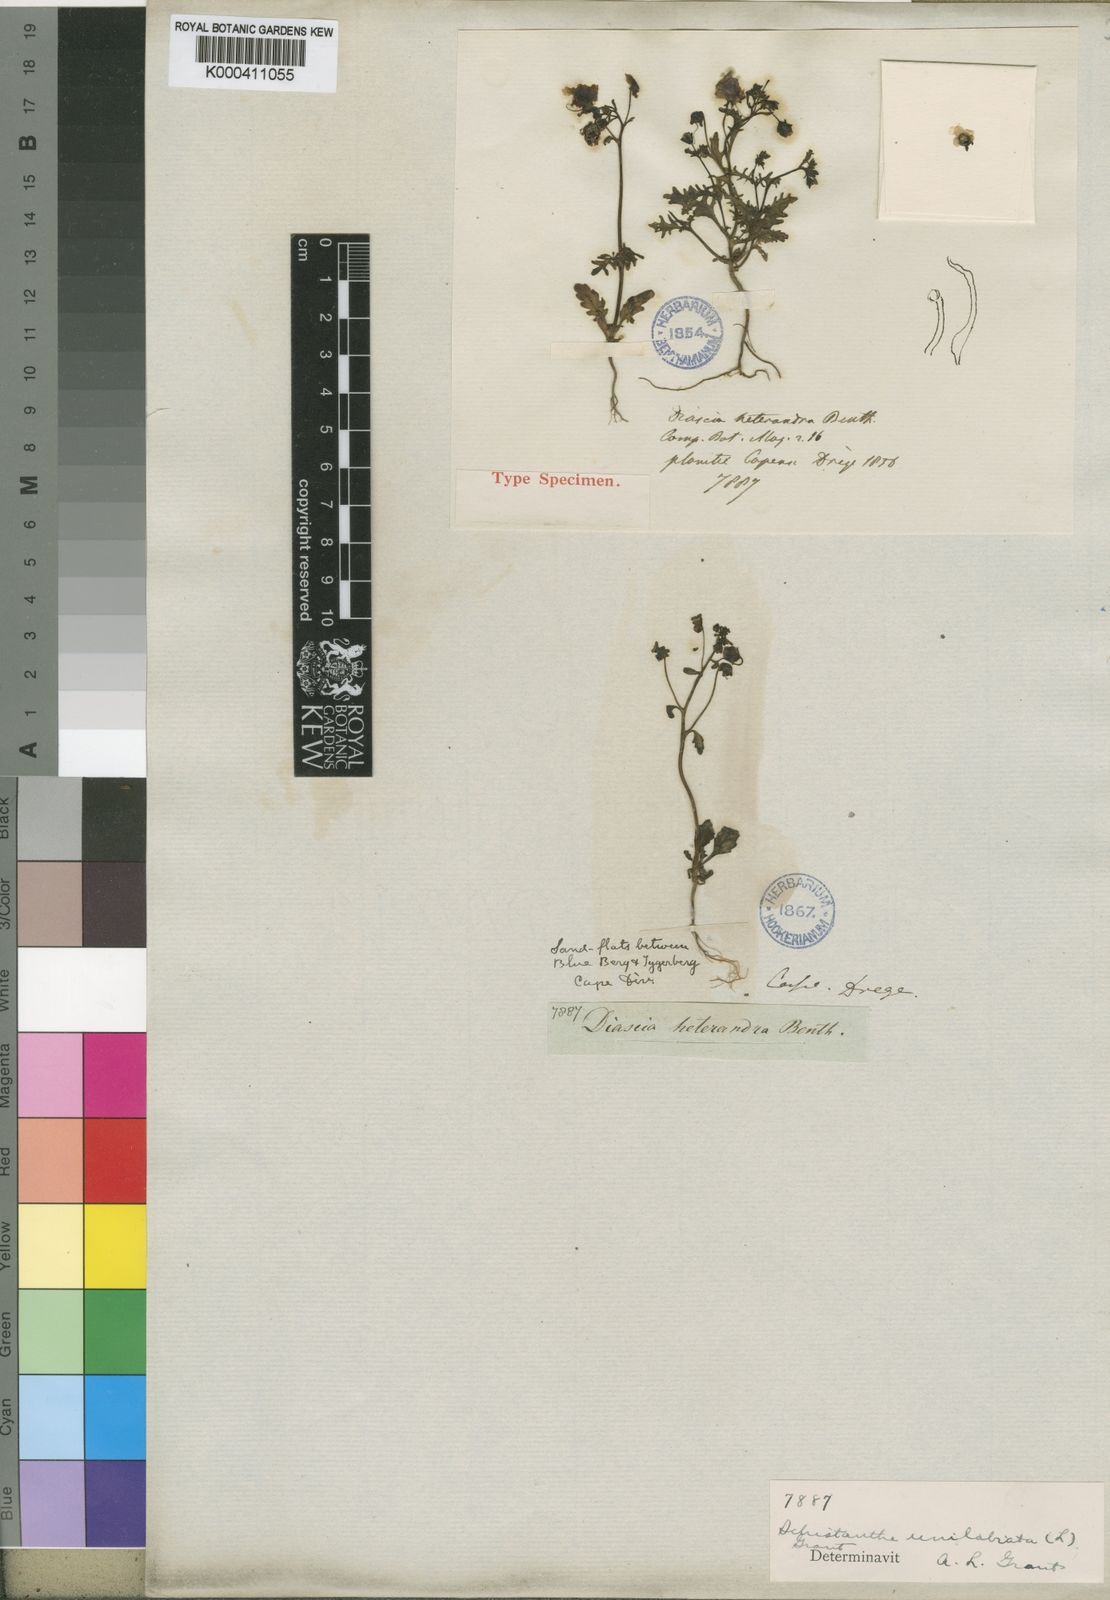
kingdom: Plantae
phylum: Tracheophyta
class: Magnoliopsida
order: Lamiales
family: Scrophulariaceae
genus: Alonsoa
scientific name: Alonsoa
